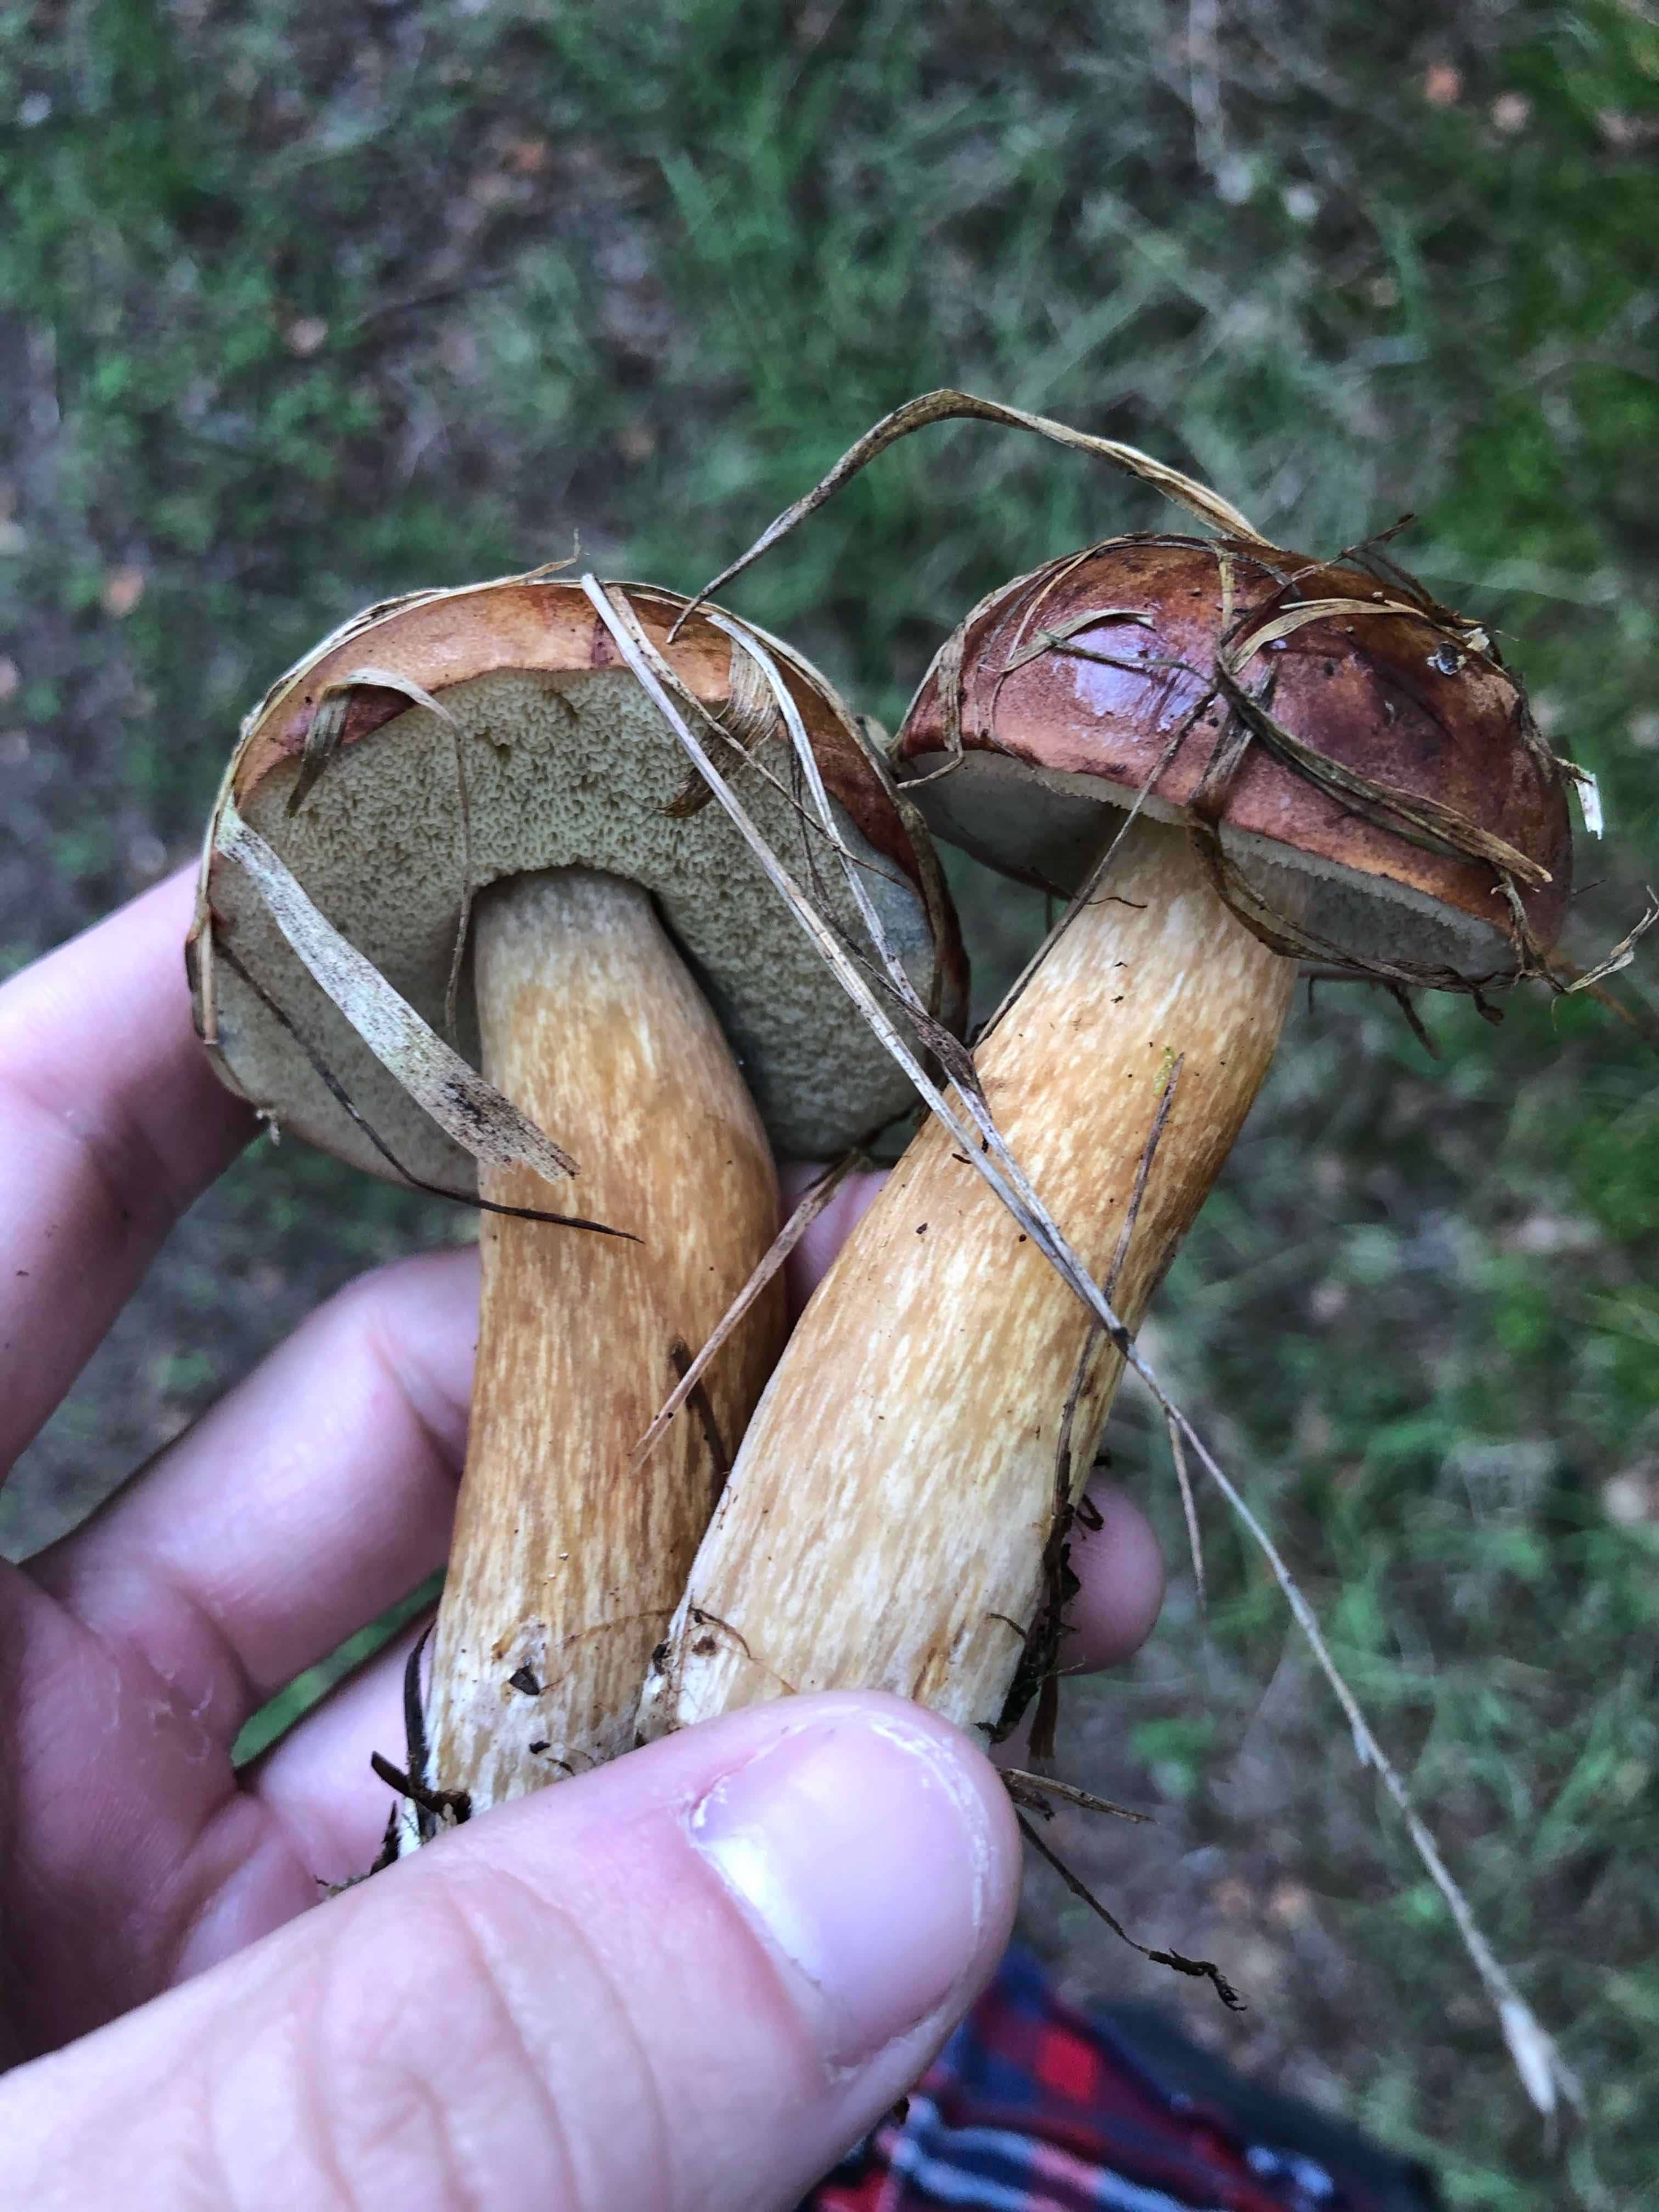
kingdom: Fungi
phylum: Basidiomycota
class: Agaricomycetes
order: Boletales
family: Boletaceae
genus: Imleria
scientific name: Imleria badia
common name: brunstokket rørhat
